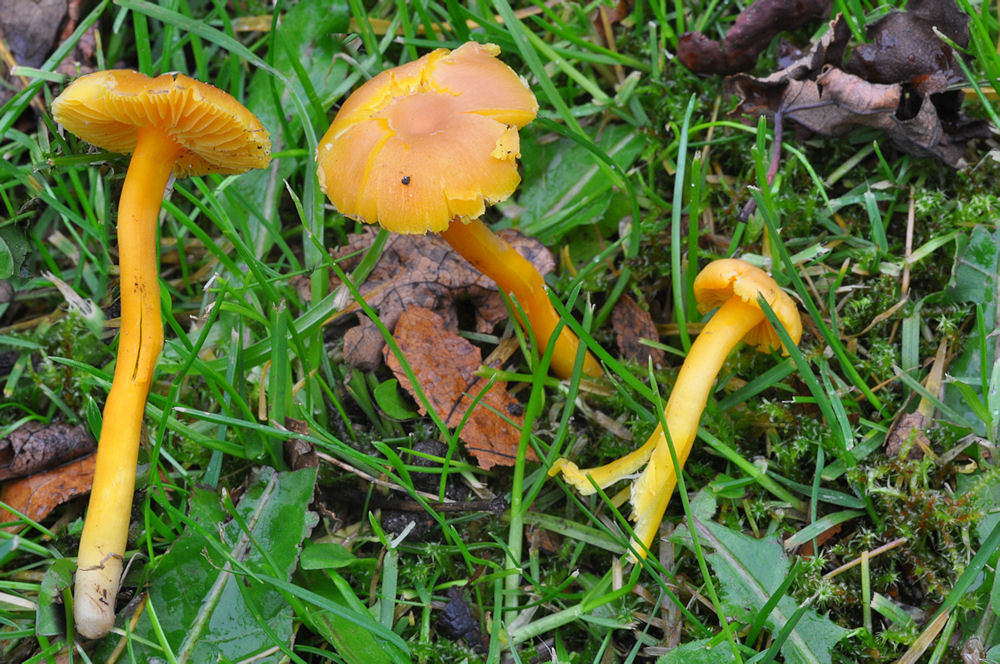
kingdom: Fungi
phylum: Basidiomycota
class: Agaricomycetes
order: Agaricales
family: Hygrophoraceae
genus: Hygrocybe
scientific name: Hygrocybe quieta
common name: tæge-vokshat
